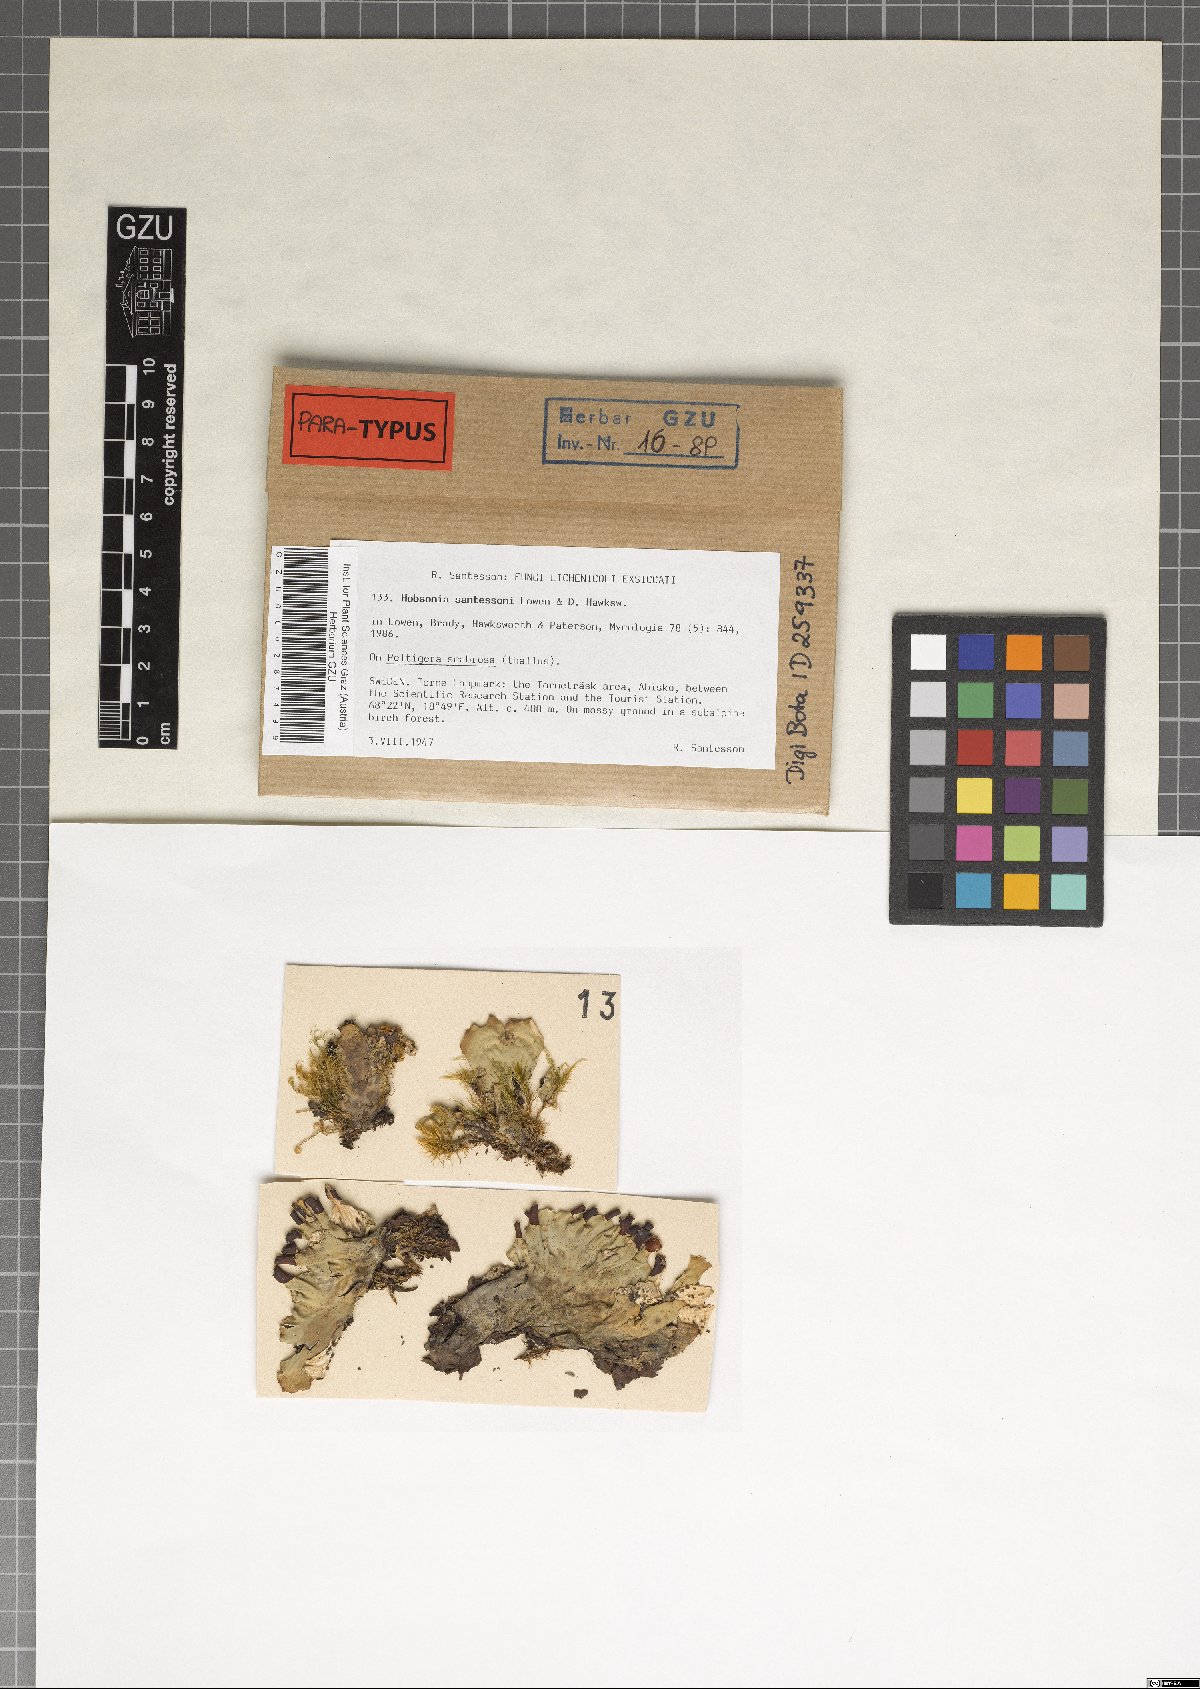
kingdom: Fungi
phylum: Ascomycota
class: Dothideomycetes
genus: Hobsoniopsis
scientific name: Hobsoniopsis santessonii
